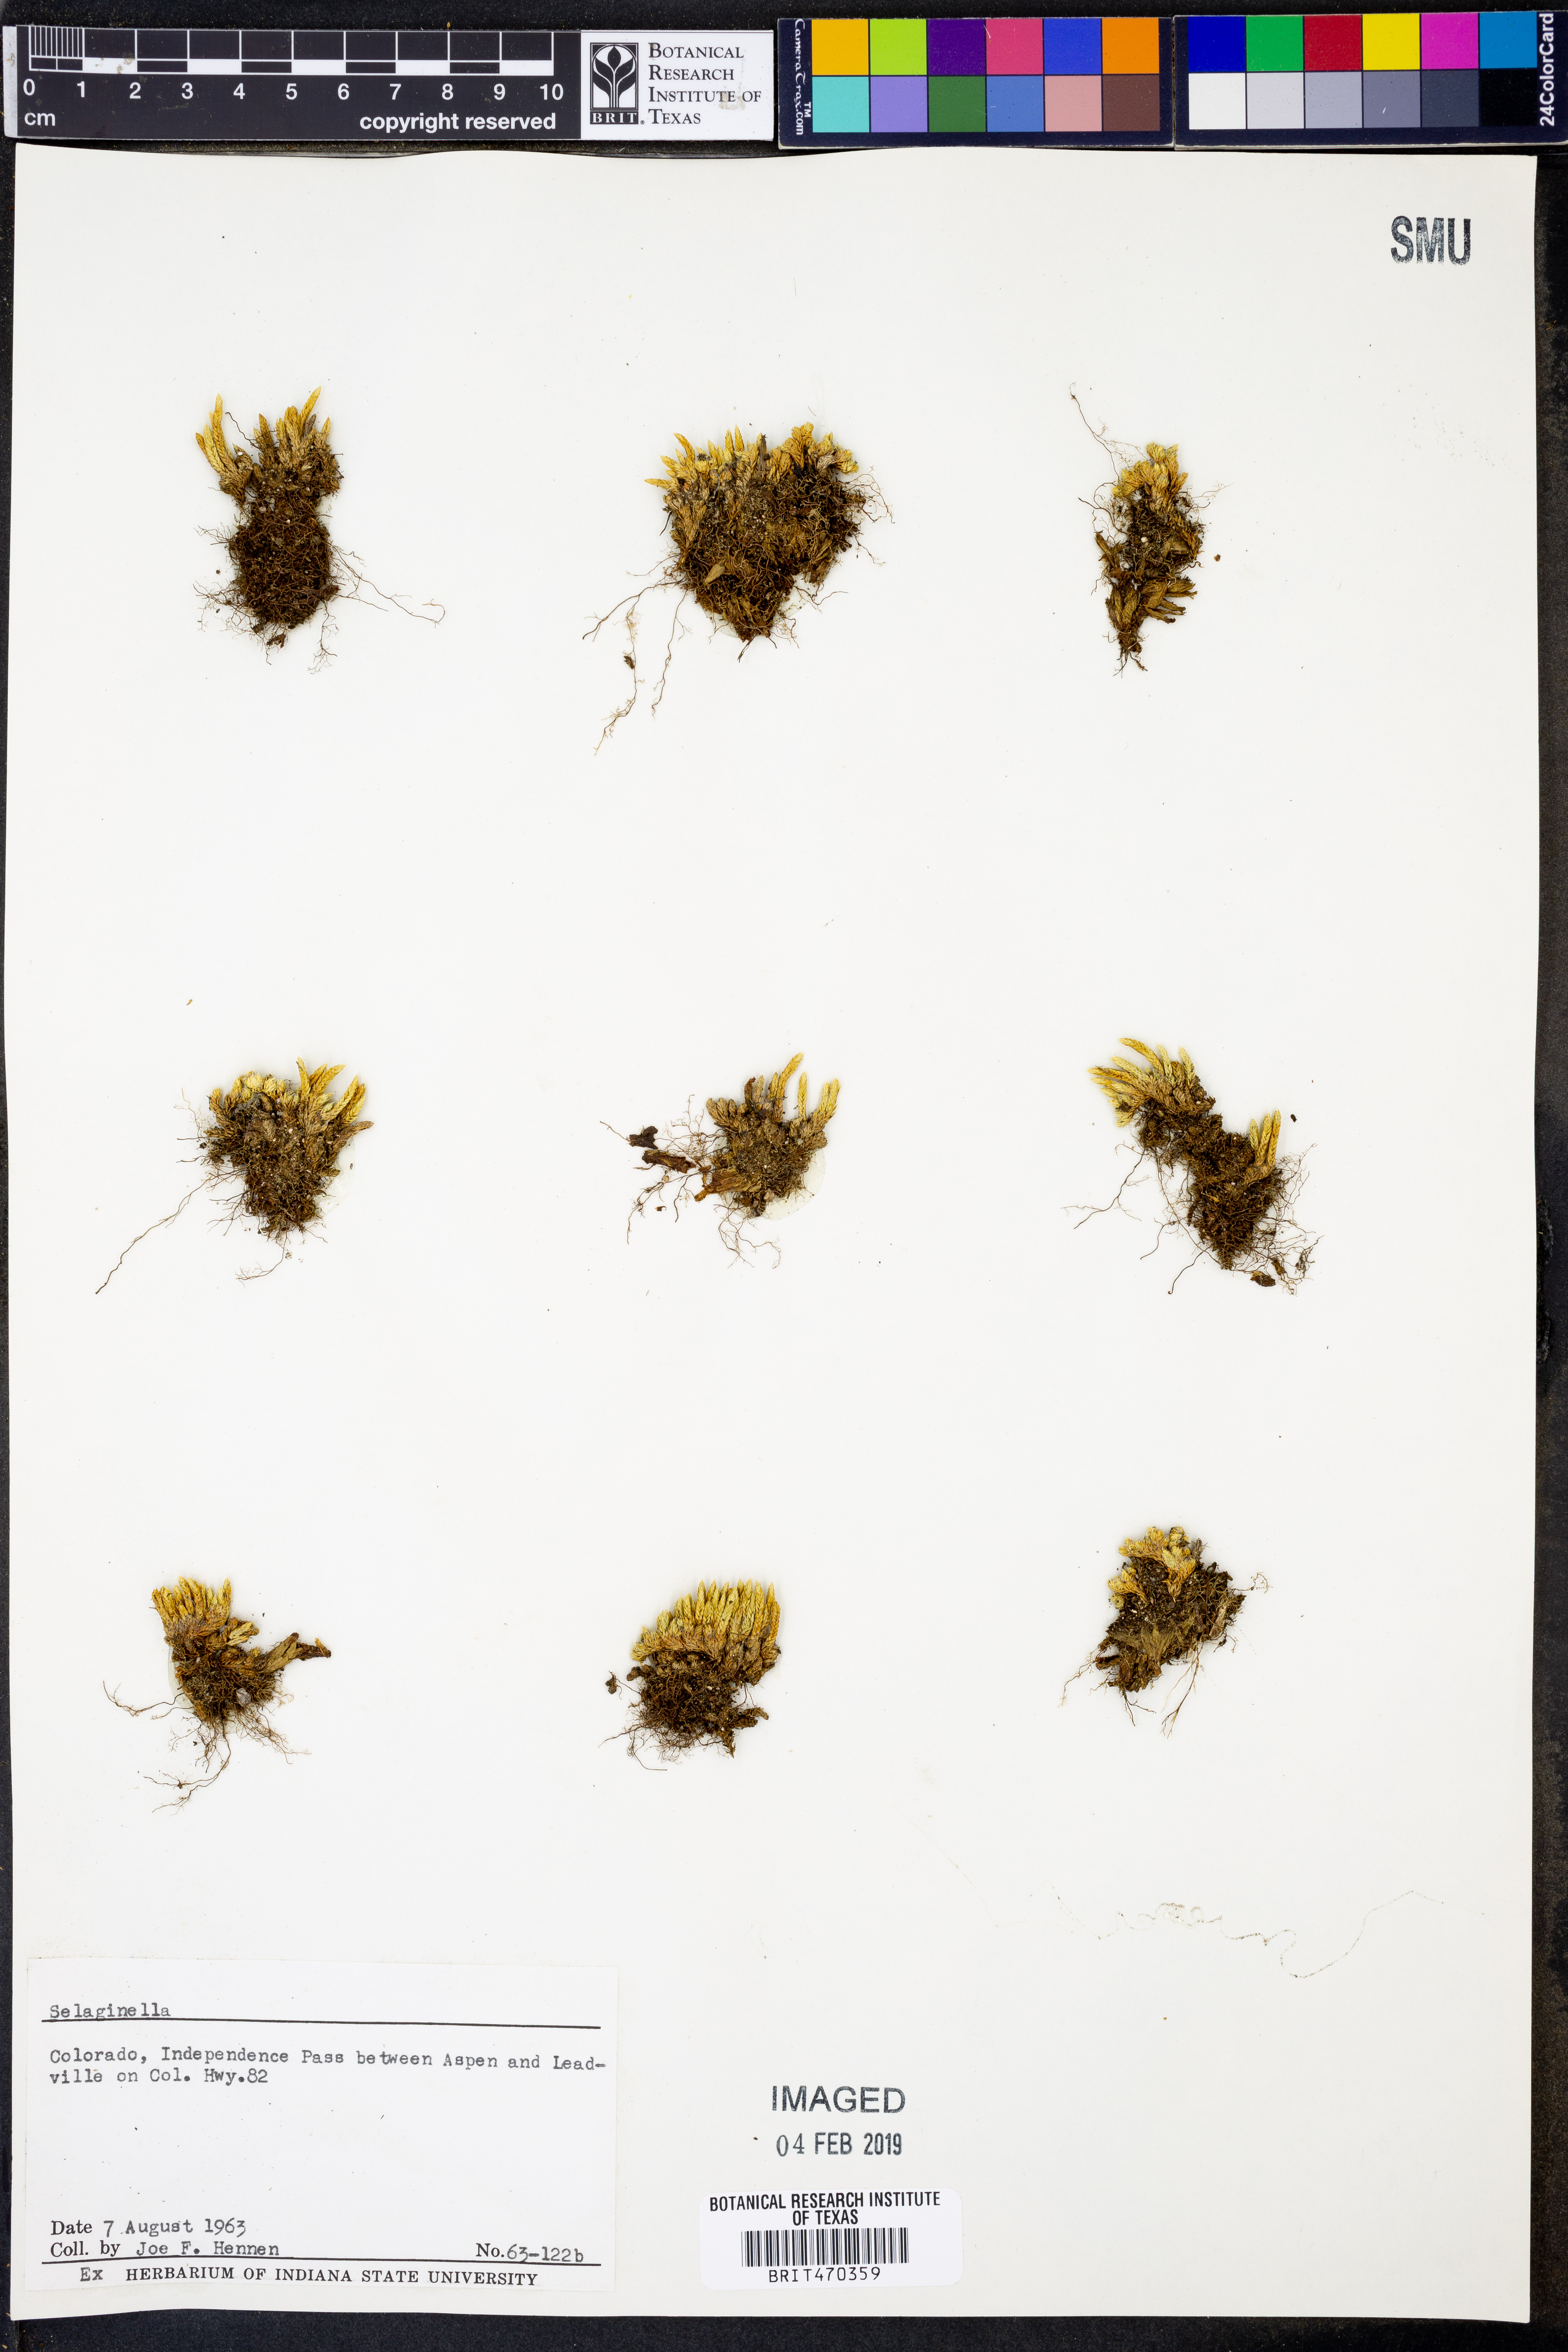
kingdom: Plantae
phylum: Tracheophyta
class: Lycopodiopsida
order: Selaginellales
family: Selaginellaceae
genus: Selaginella
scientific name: Selaginella
